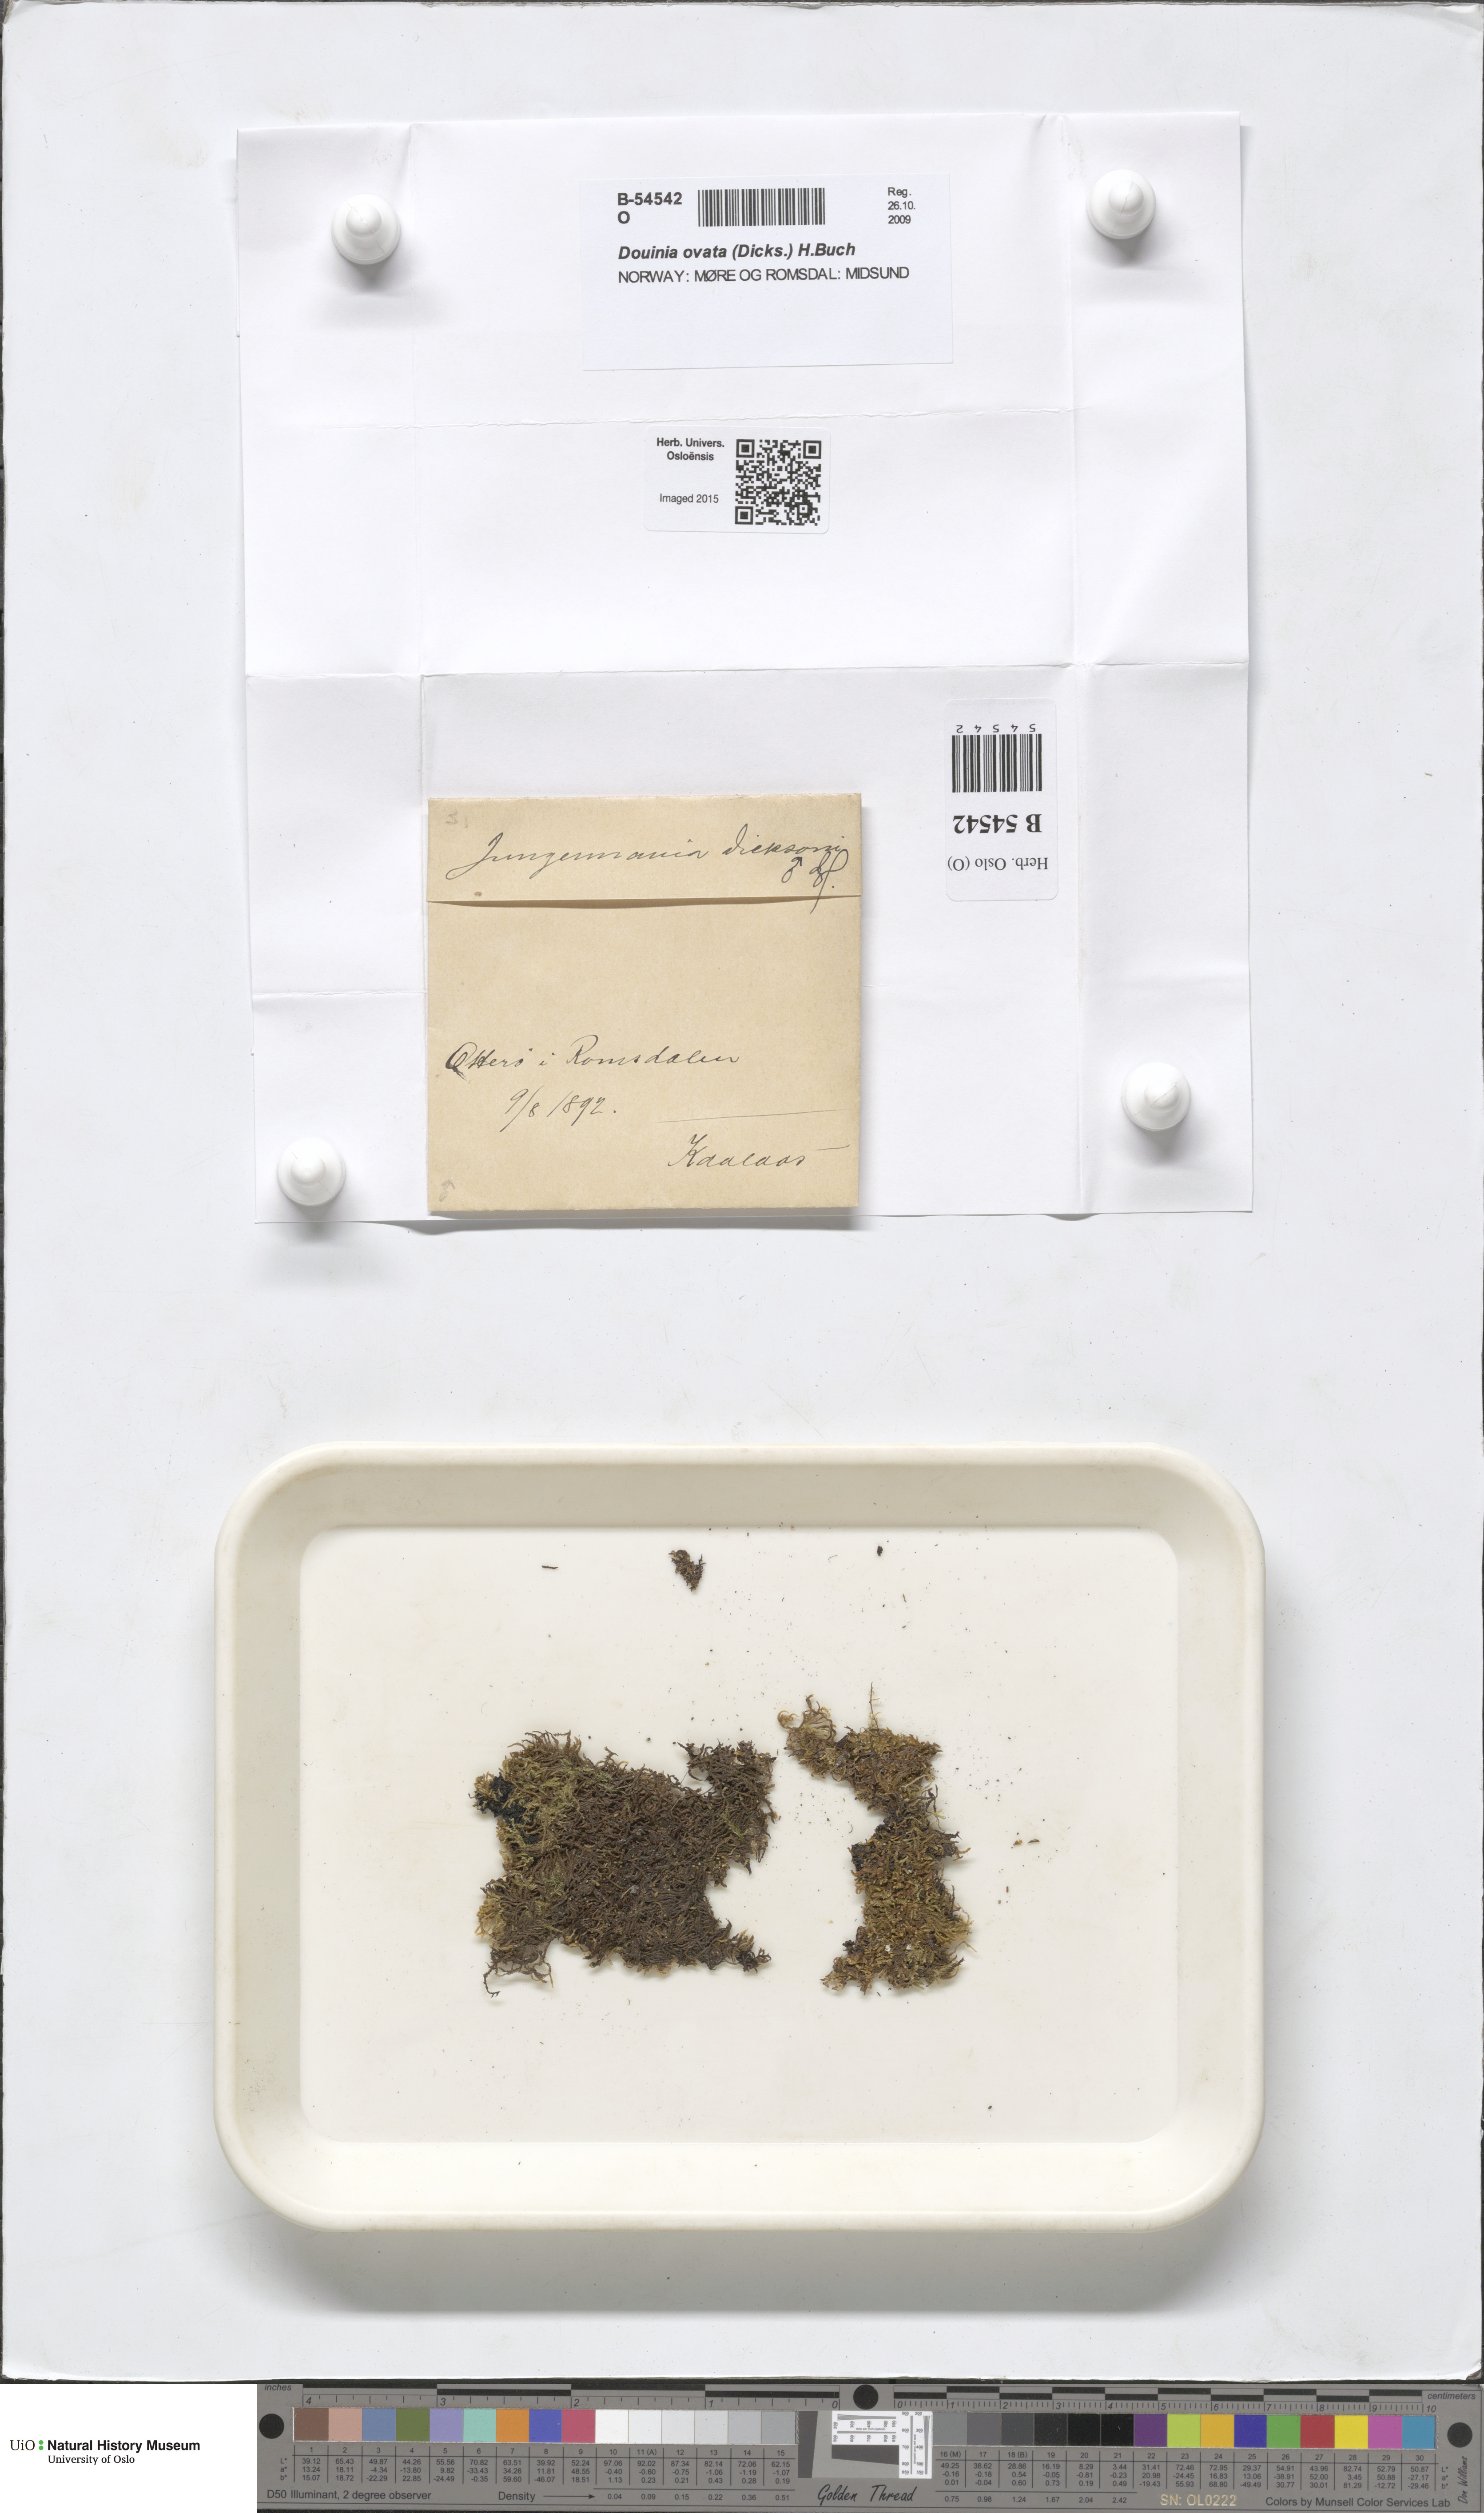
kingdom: Plantae
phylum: Marchantiophyta
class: Jungermanniopsida
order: Jungermanniales
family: Scapaniaceae
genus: Douinia
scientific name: Douinia ovata
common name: Waxy earwort
